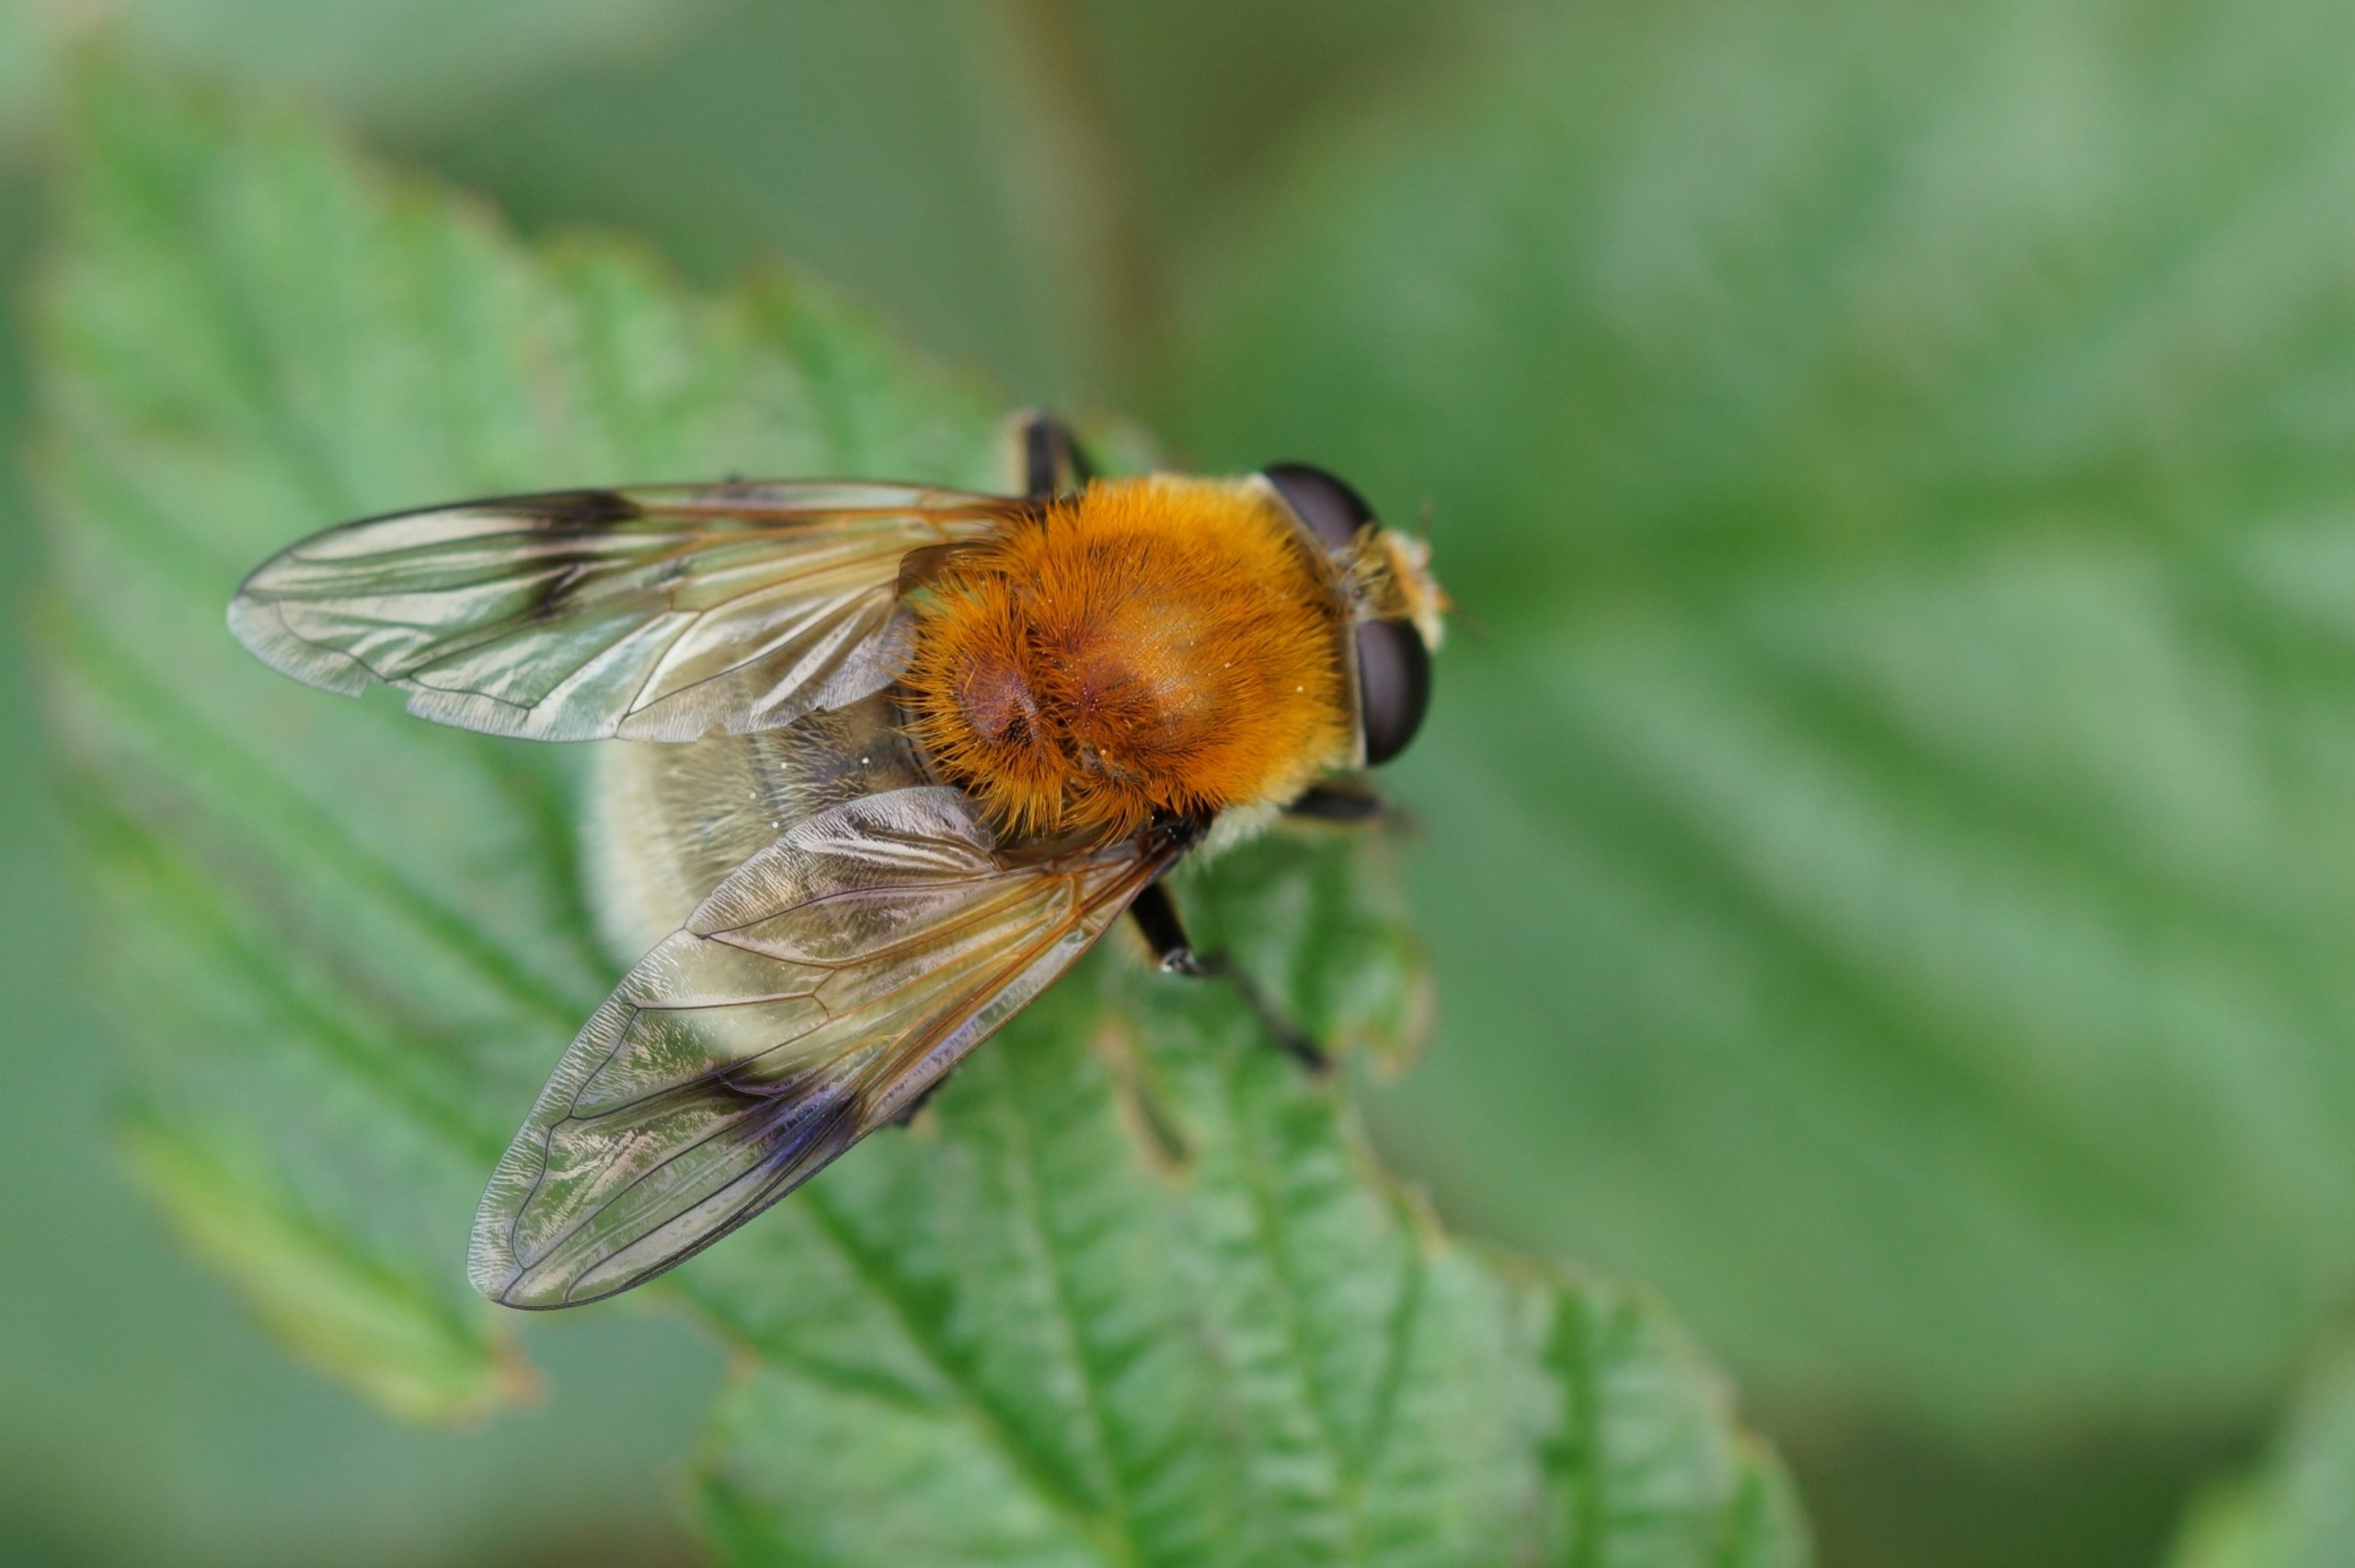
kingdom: Animalia
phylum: Arthropoda
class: Insecta
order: Diptera
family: Syrphidae
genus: Sericomyia
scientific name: Sericomyia superbiens
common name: Brun bjørnesvirreflue
